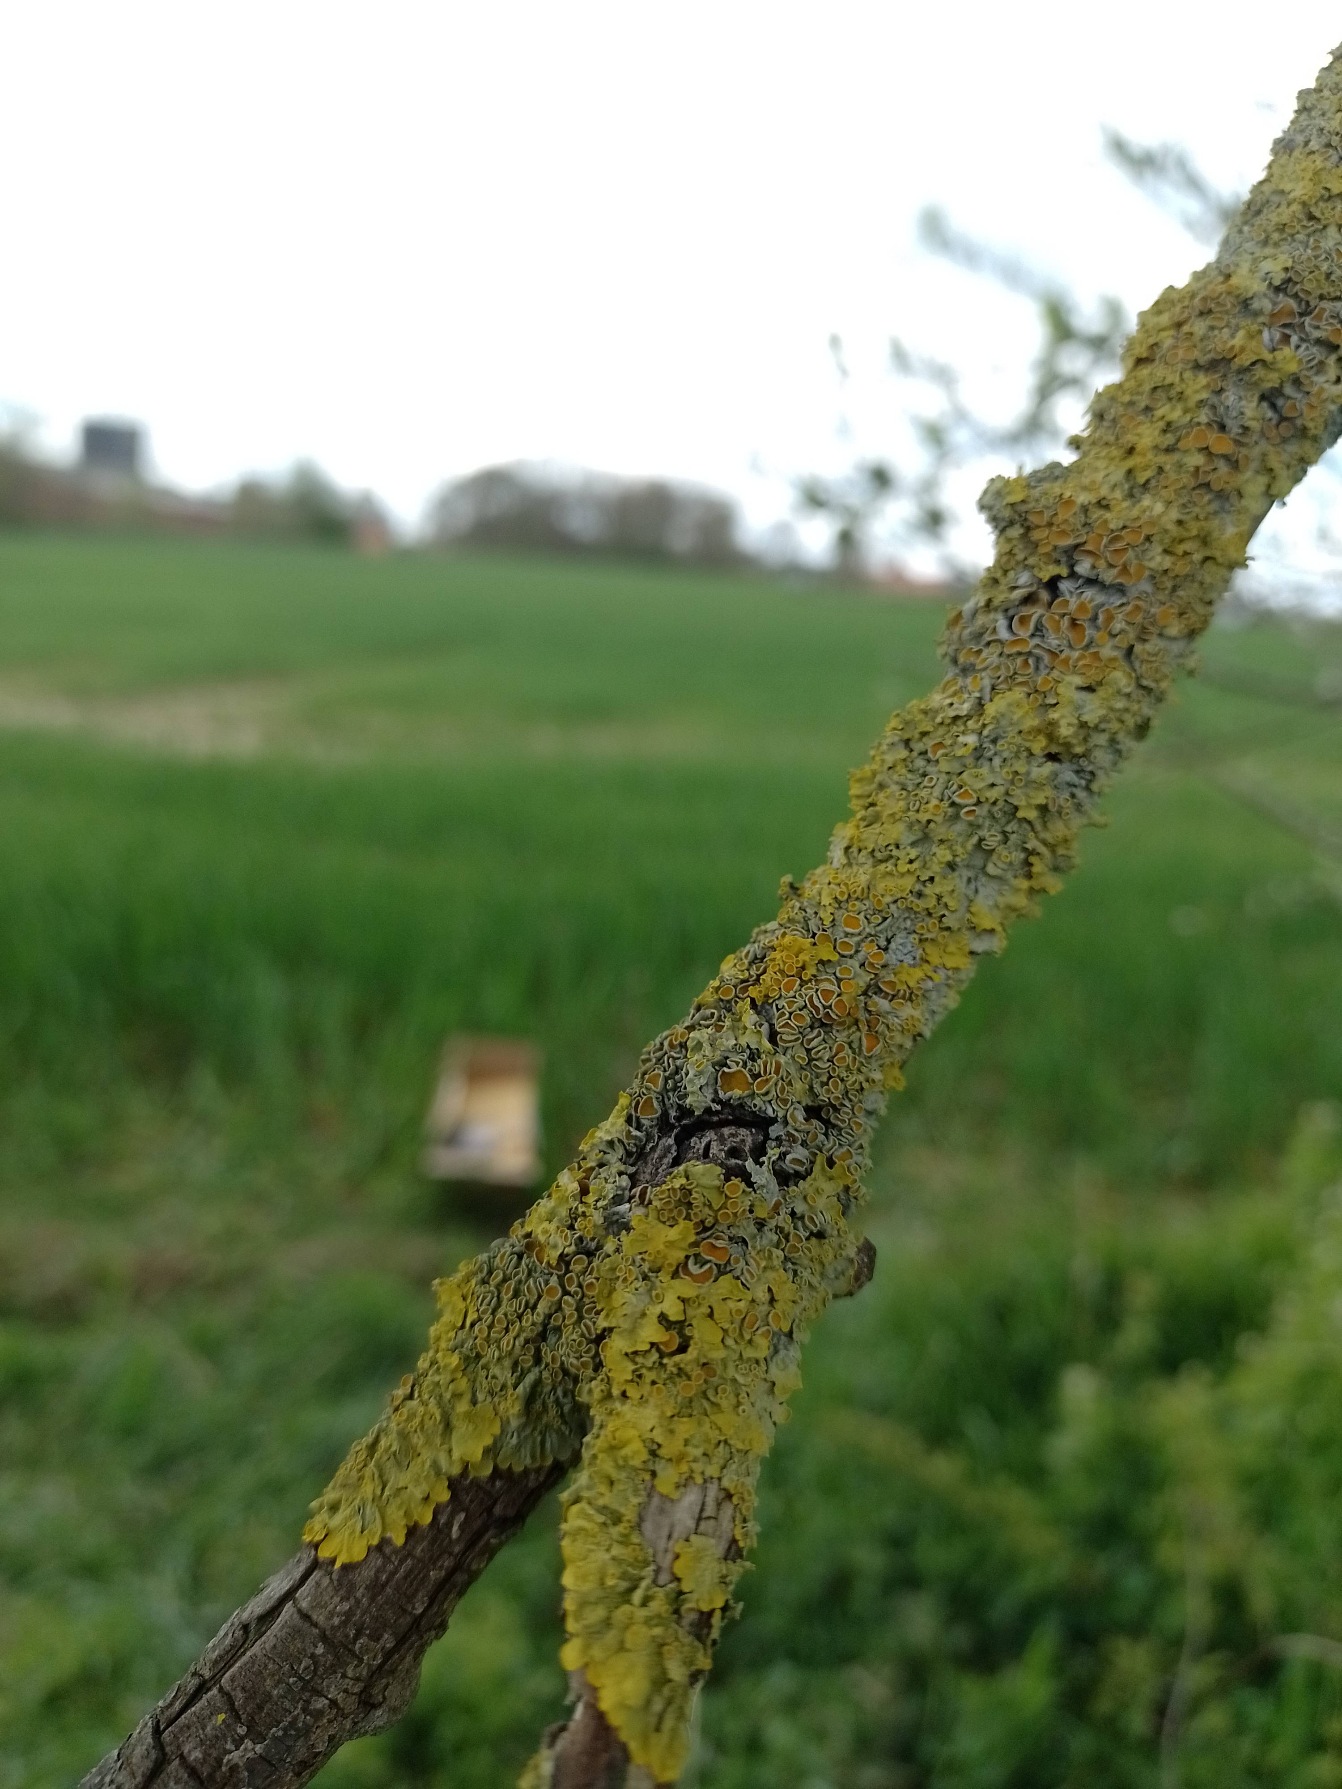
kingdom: Fungi
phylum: Ascomycota
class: Lecanoromycetes
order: Teloschistales
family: Teloschistaceae
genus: Xanthoria
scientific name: Xanthoria parietina
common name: Almindelig væggelav
